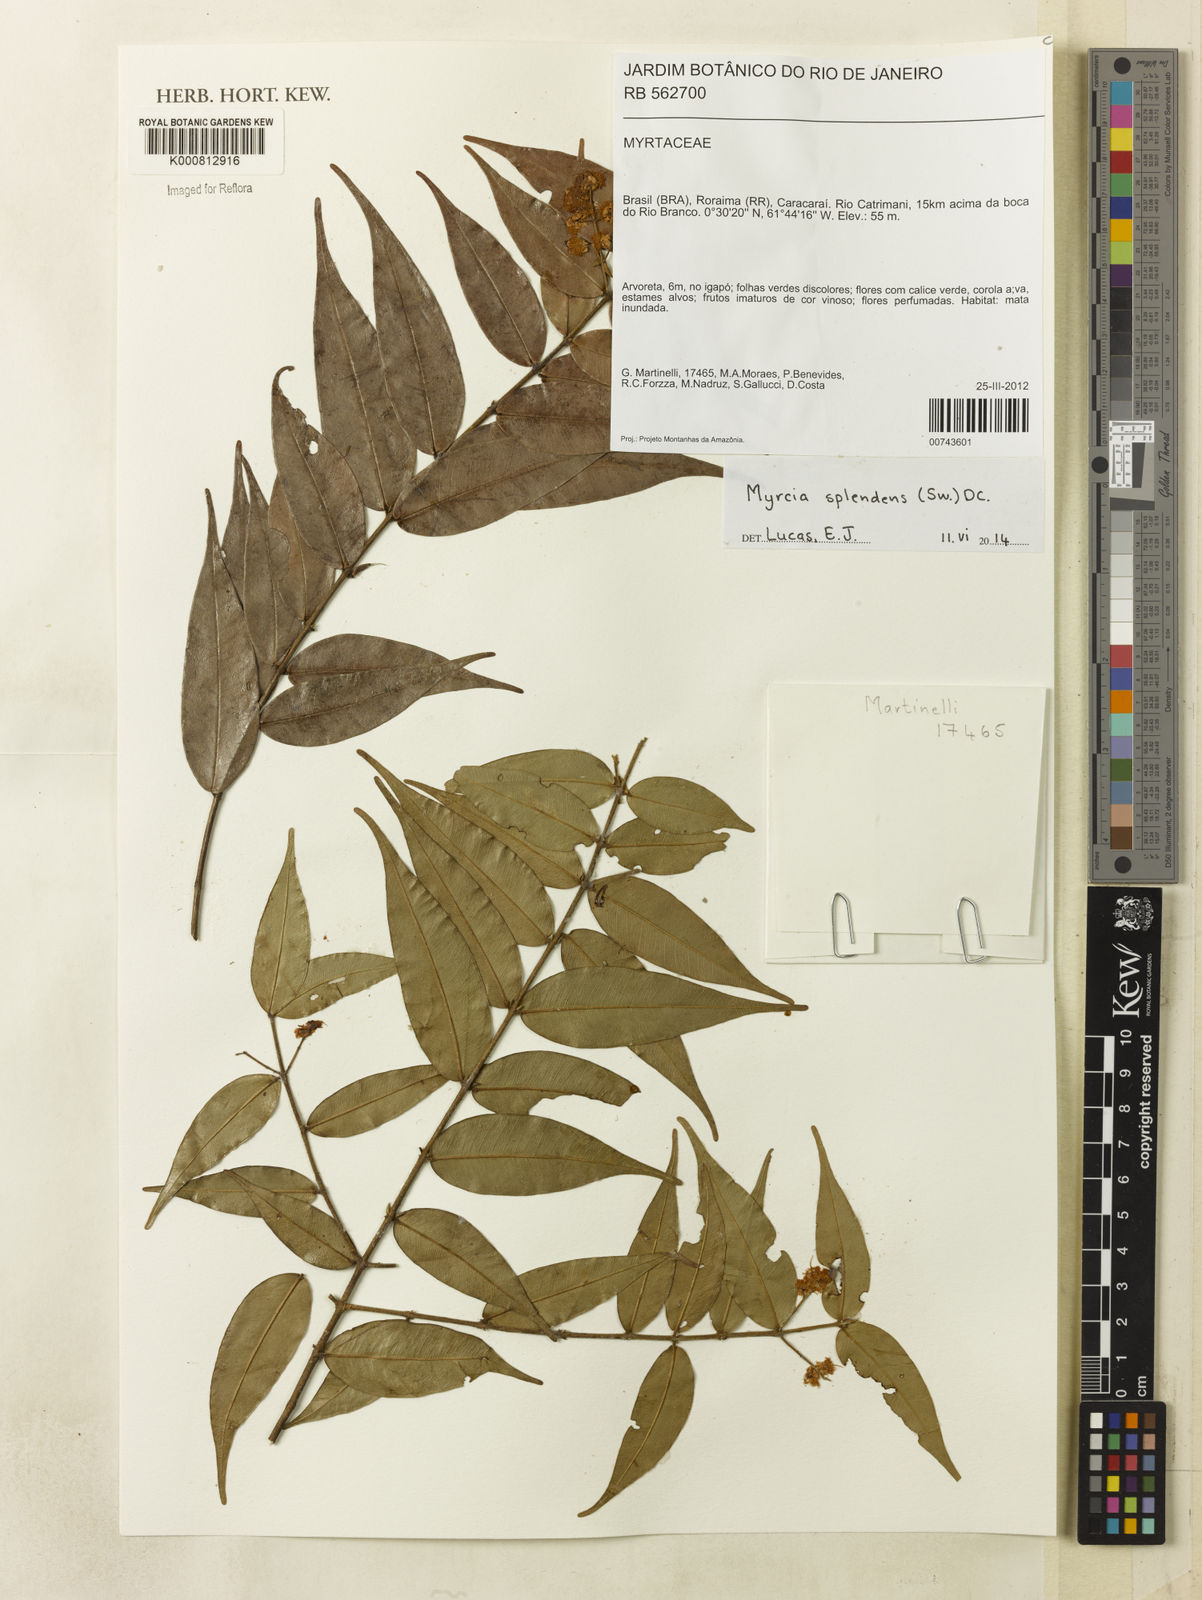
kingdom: Plantae
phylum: Tracheophyta
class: Magnoliopsida
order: Myrtales
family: Myrtaceae
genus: Myrcia
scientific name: Myrcia splendens
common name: Surinam cherry
